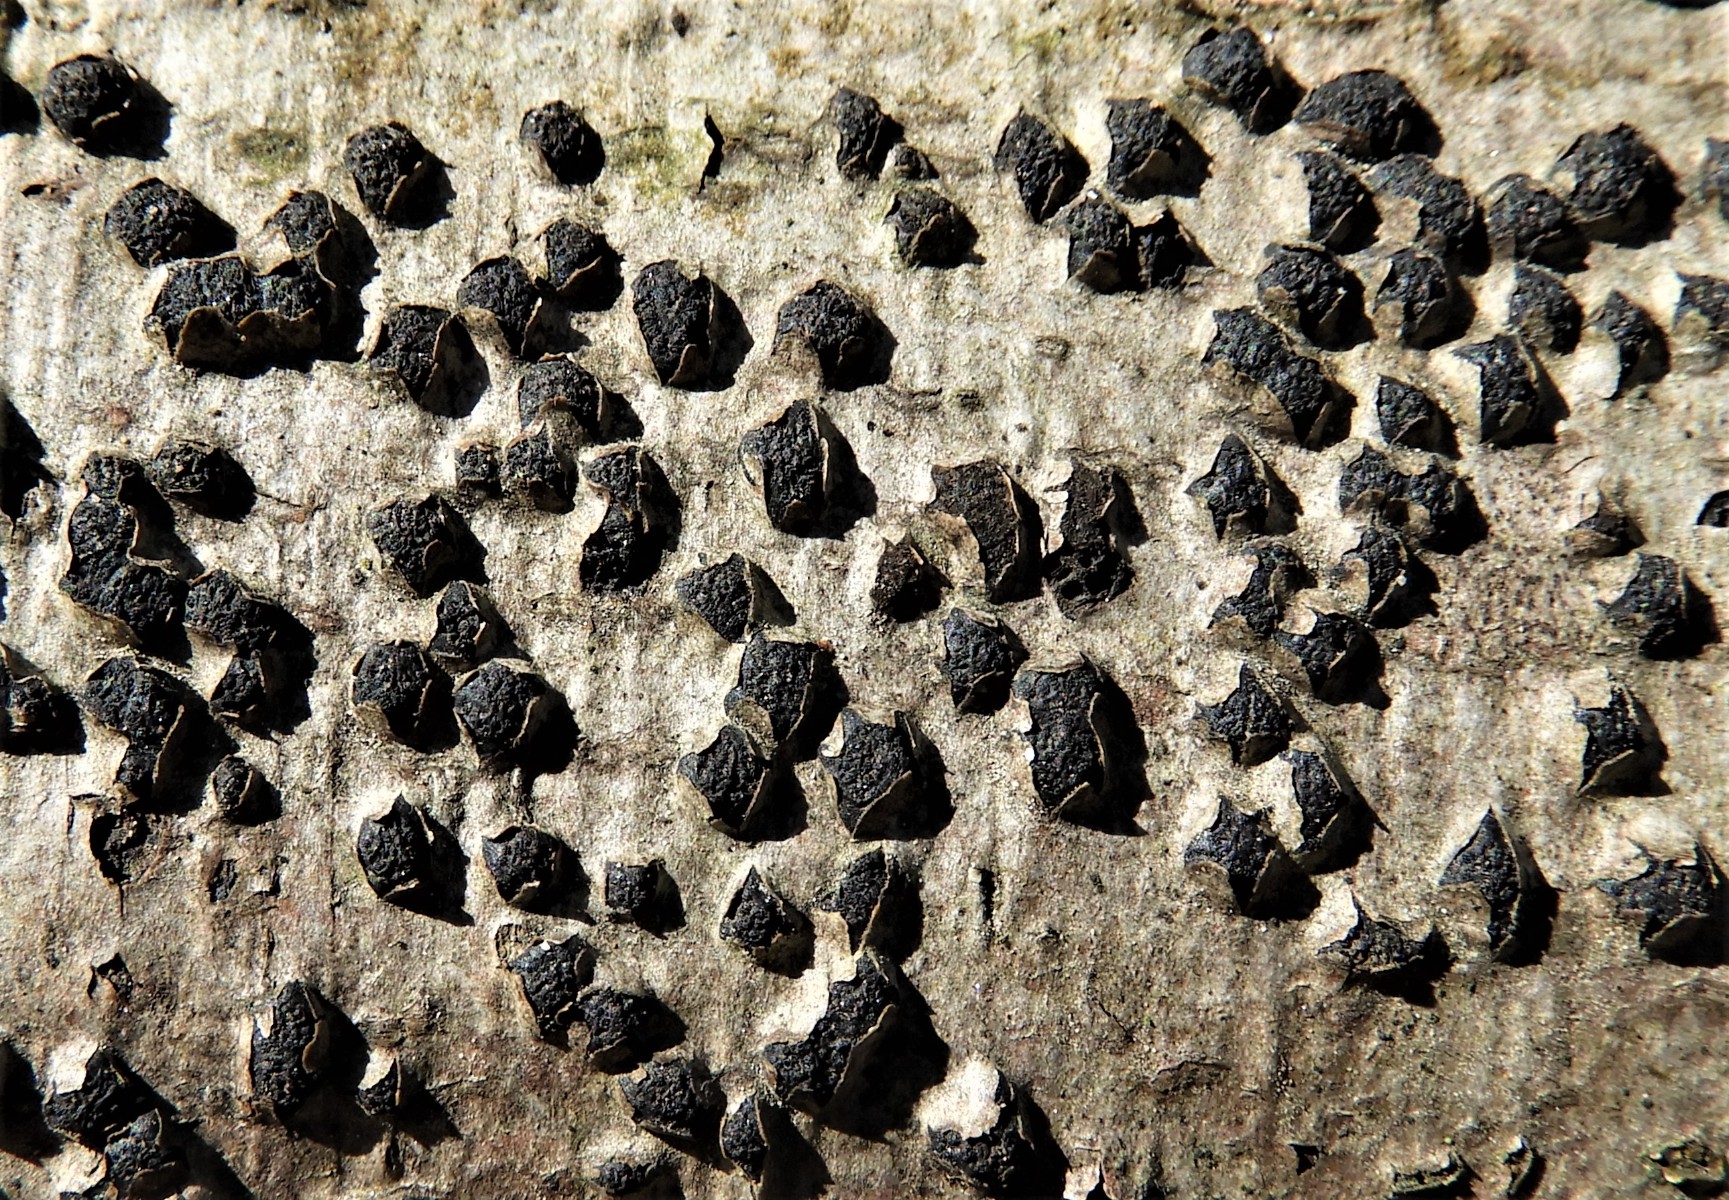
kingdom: Fungi
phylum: Ascomycota
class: Sordariomycetes
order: Xylariales
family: Melogrammataceae
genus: Melogramma
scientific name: Melogramma spiniferum
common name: bøgefod-kulhals
